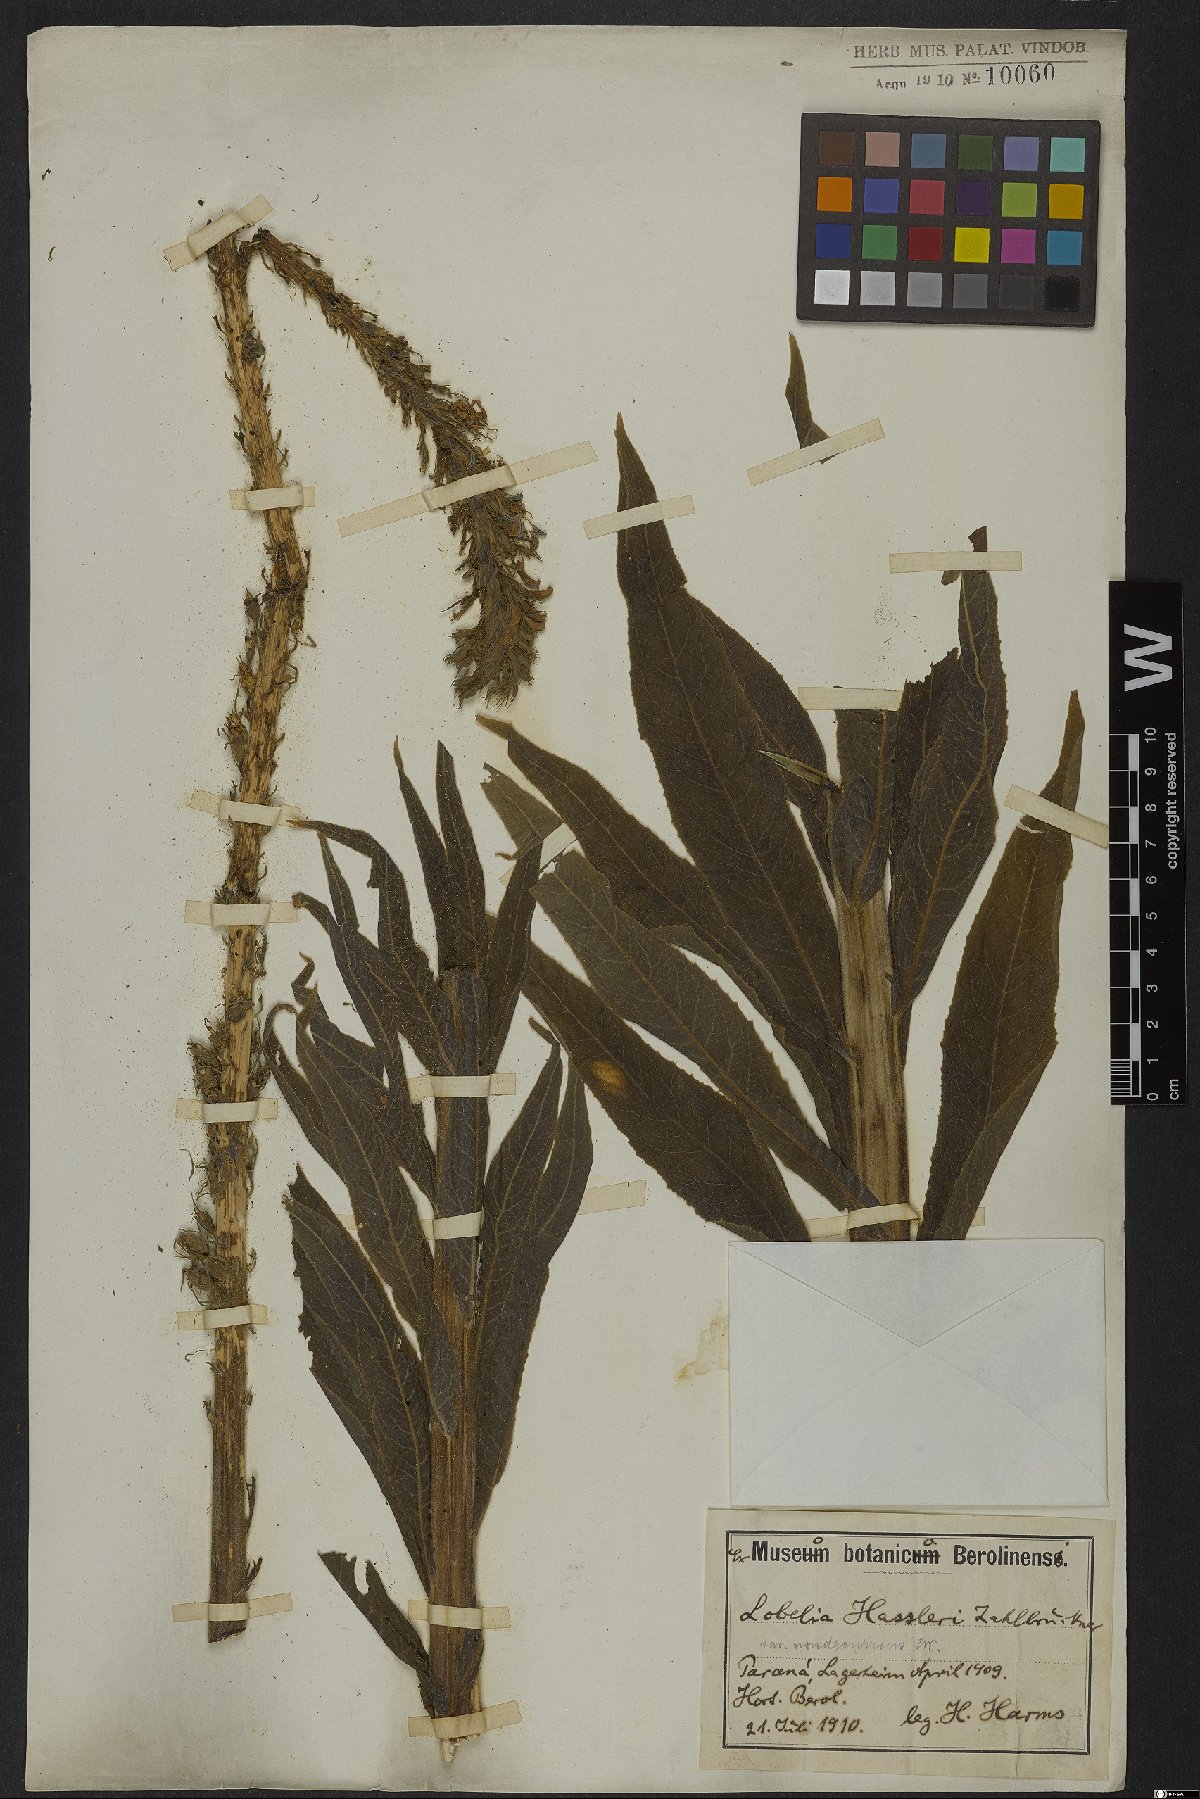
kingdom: Plantae
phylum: Tracheophyta
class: Magnoliopsida
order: Asterales
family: Campanulaceae
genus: Lobelia
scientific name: Lobelia hassleri
